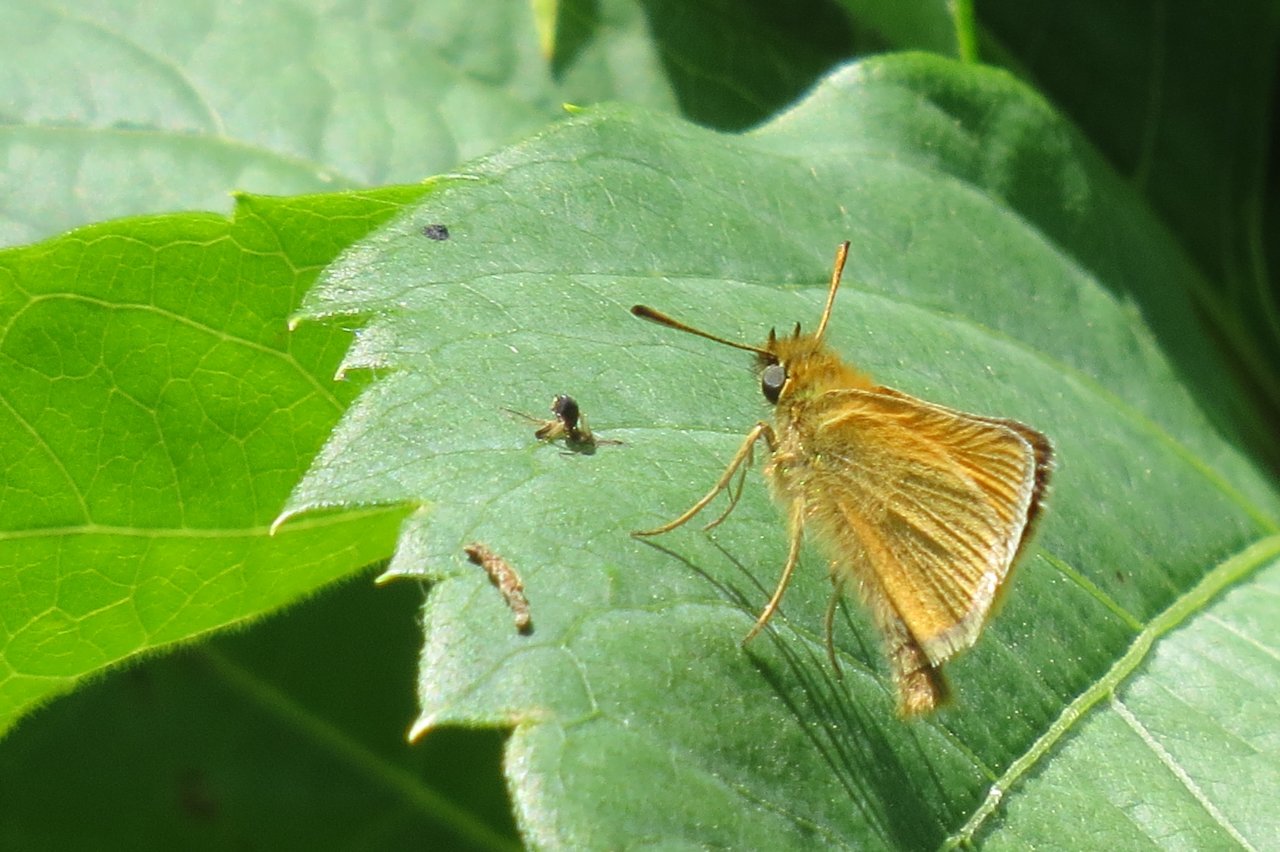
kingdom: Animalia
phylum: Arthropoda
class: Insecta
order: Lepidoptera
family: Hesperiidae
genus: Thymelicus
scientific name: Thymelicus lineola
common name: European Skipper
